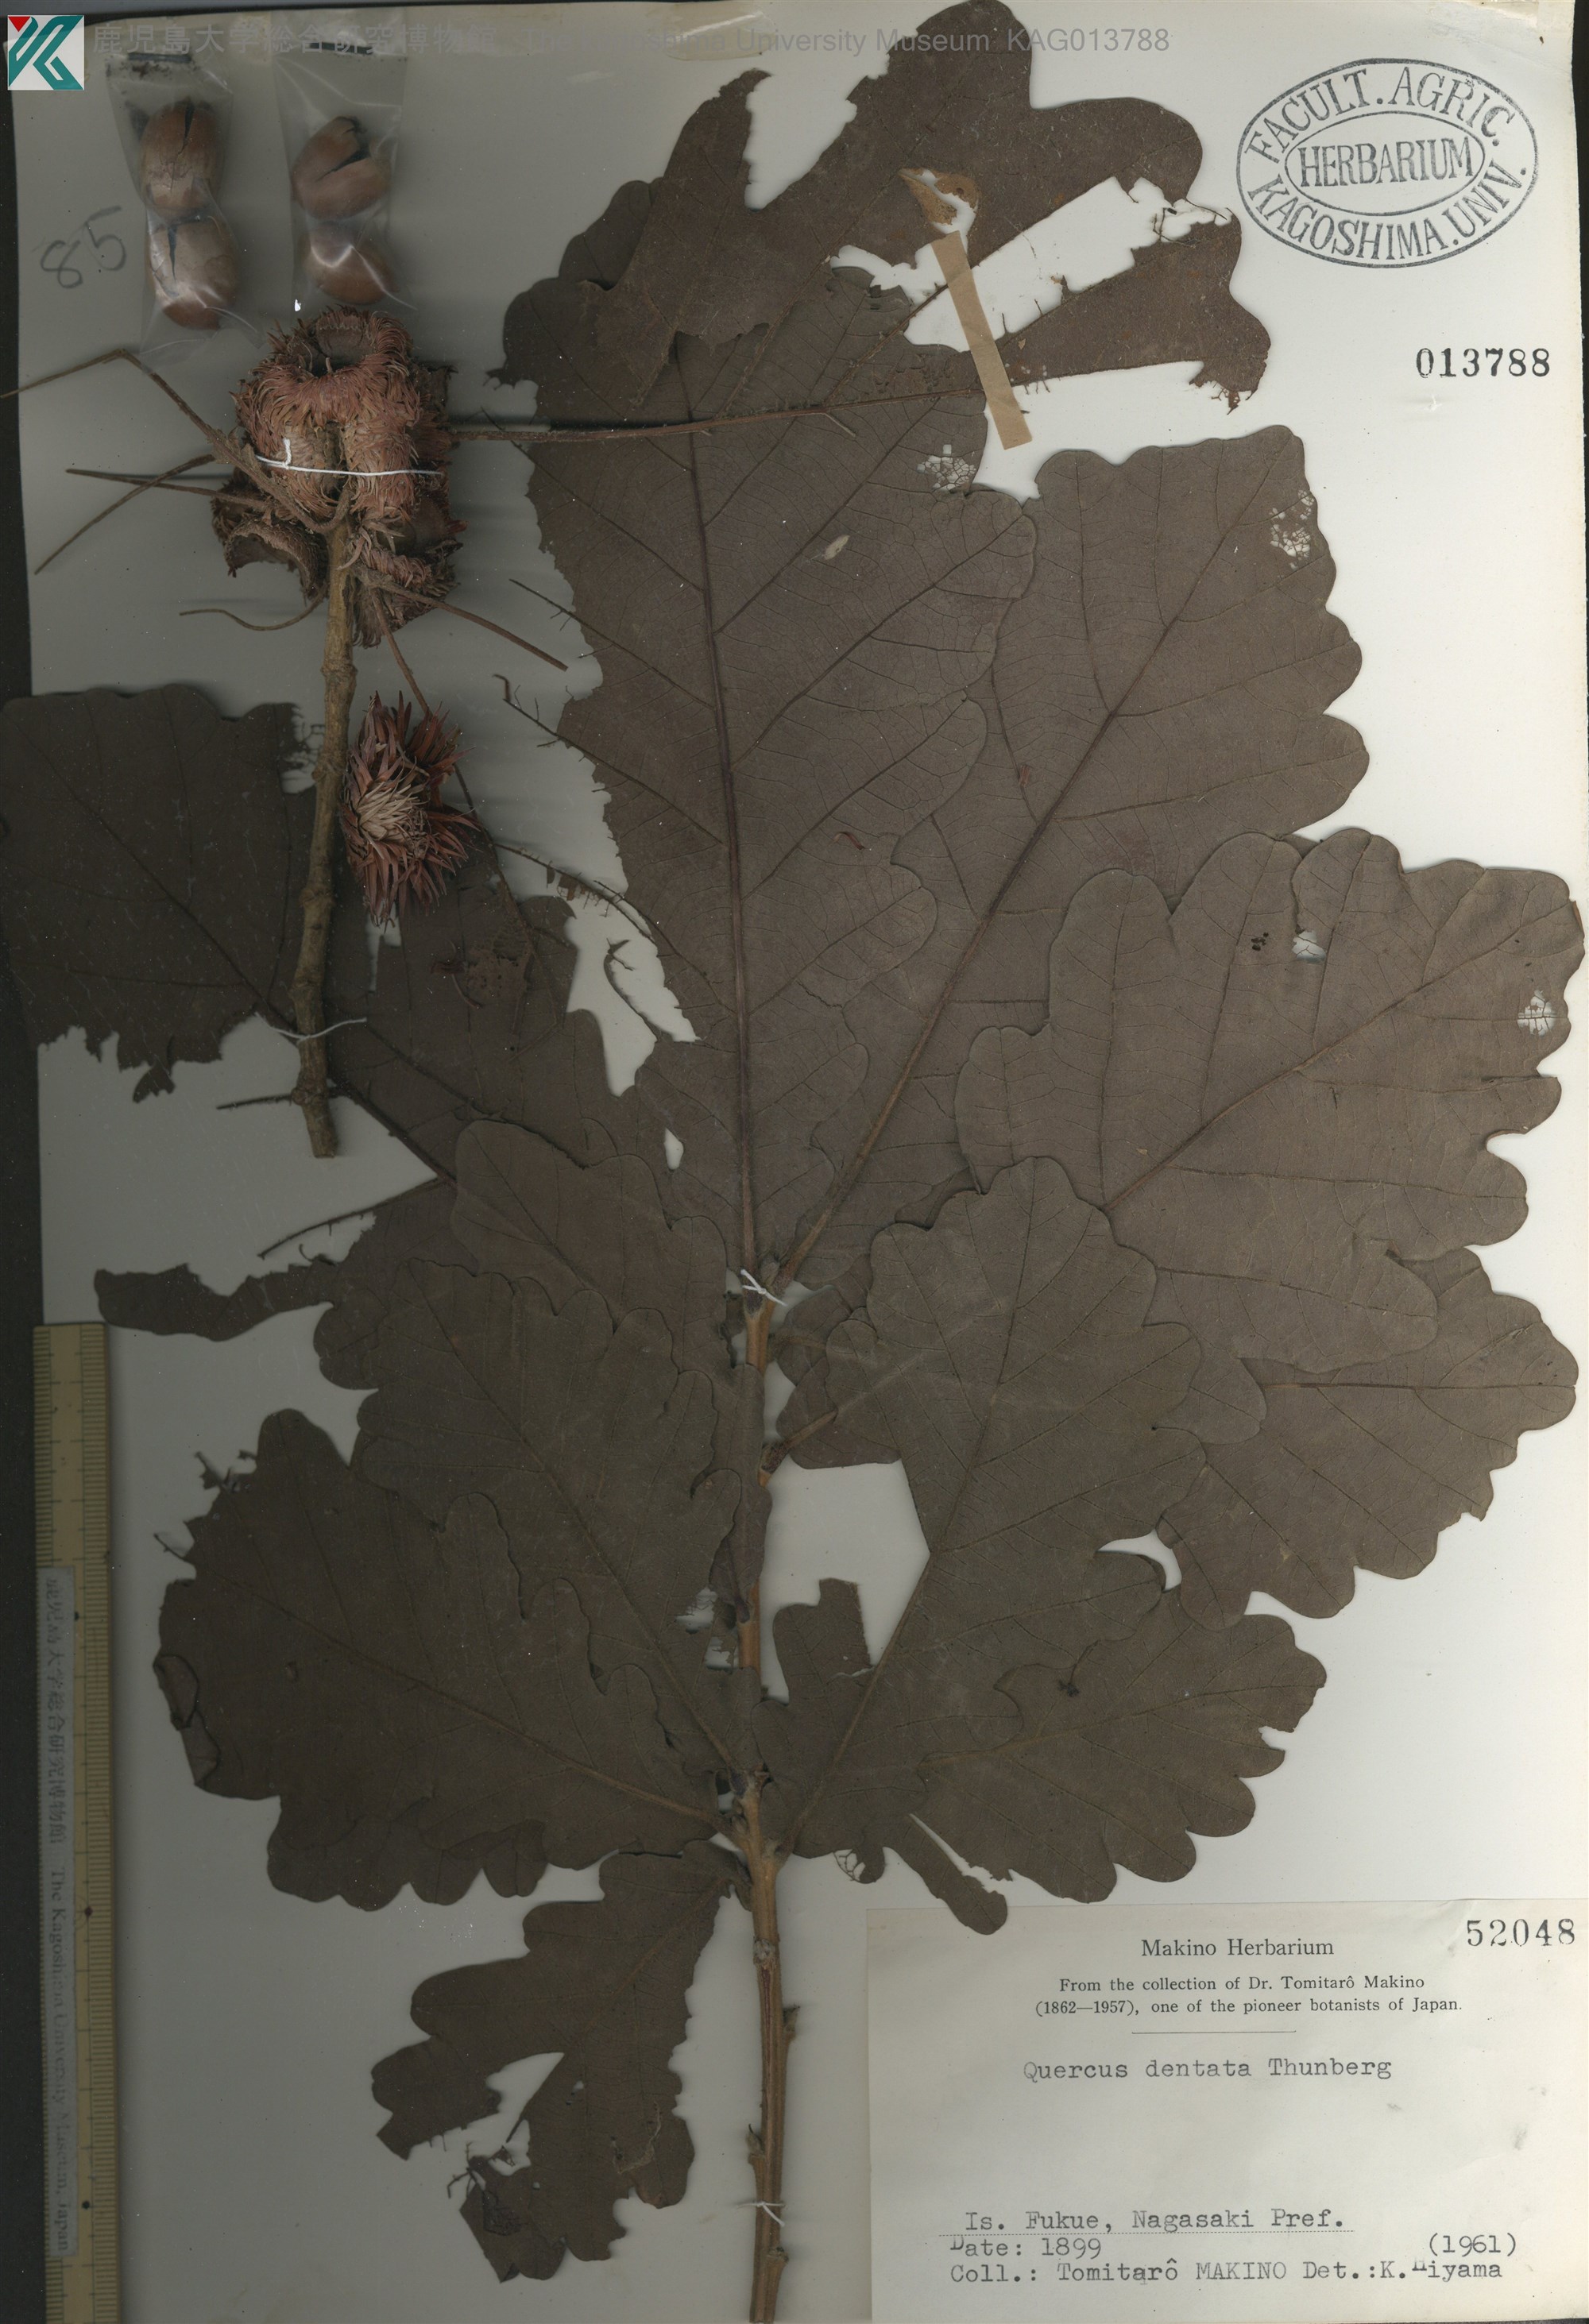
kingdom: Plantae
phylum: Tracheophyta
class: Magnoliopsida
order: Fagales
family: Fagaceae
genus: Quercus
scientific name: Quercus dentata
